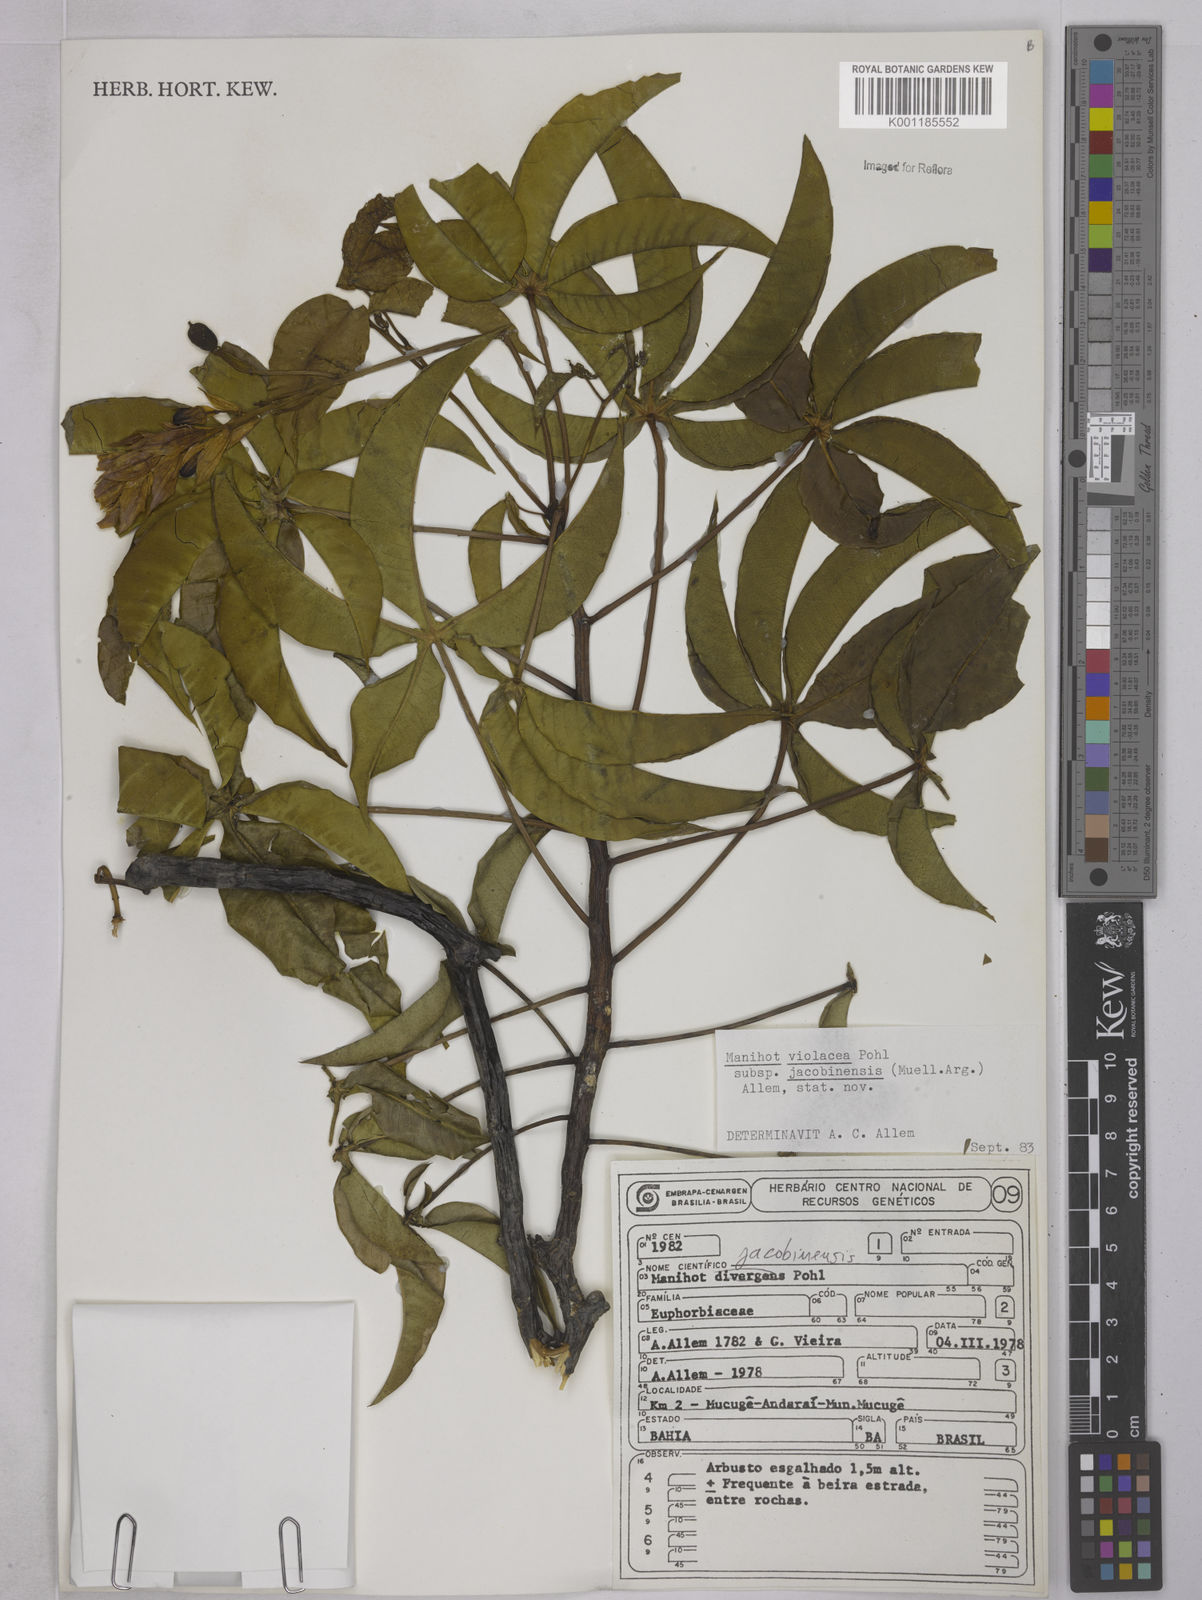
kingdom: Plantae
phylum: Tracheophyta
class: Magnoliopsida
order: Malpighiales
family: Euphorbiaceae
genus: Manihot
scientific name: Manihot
